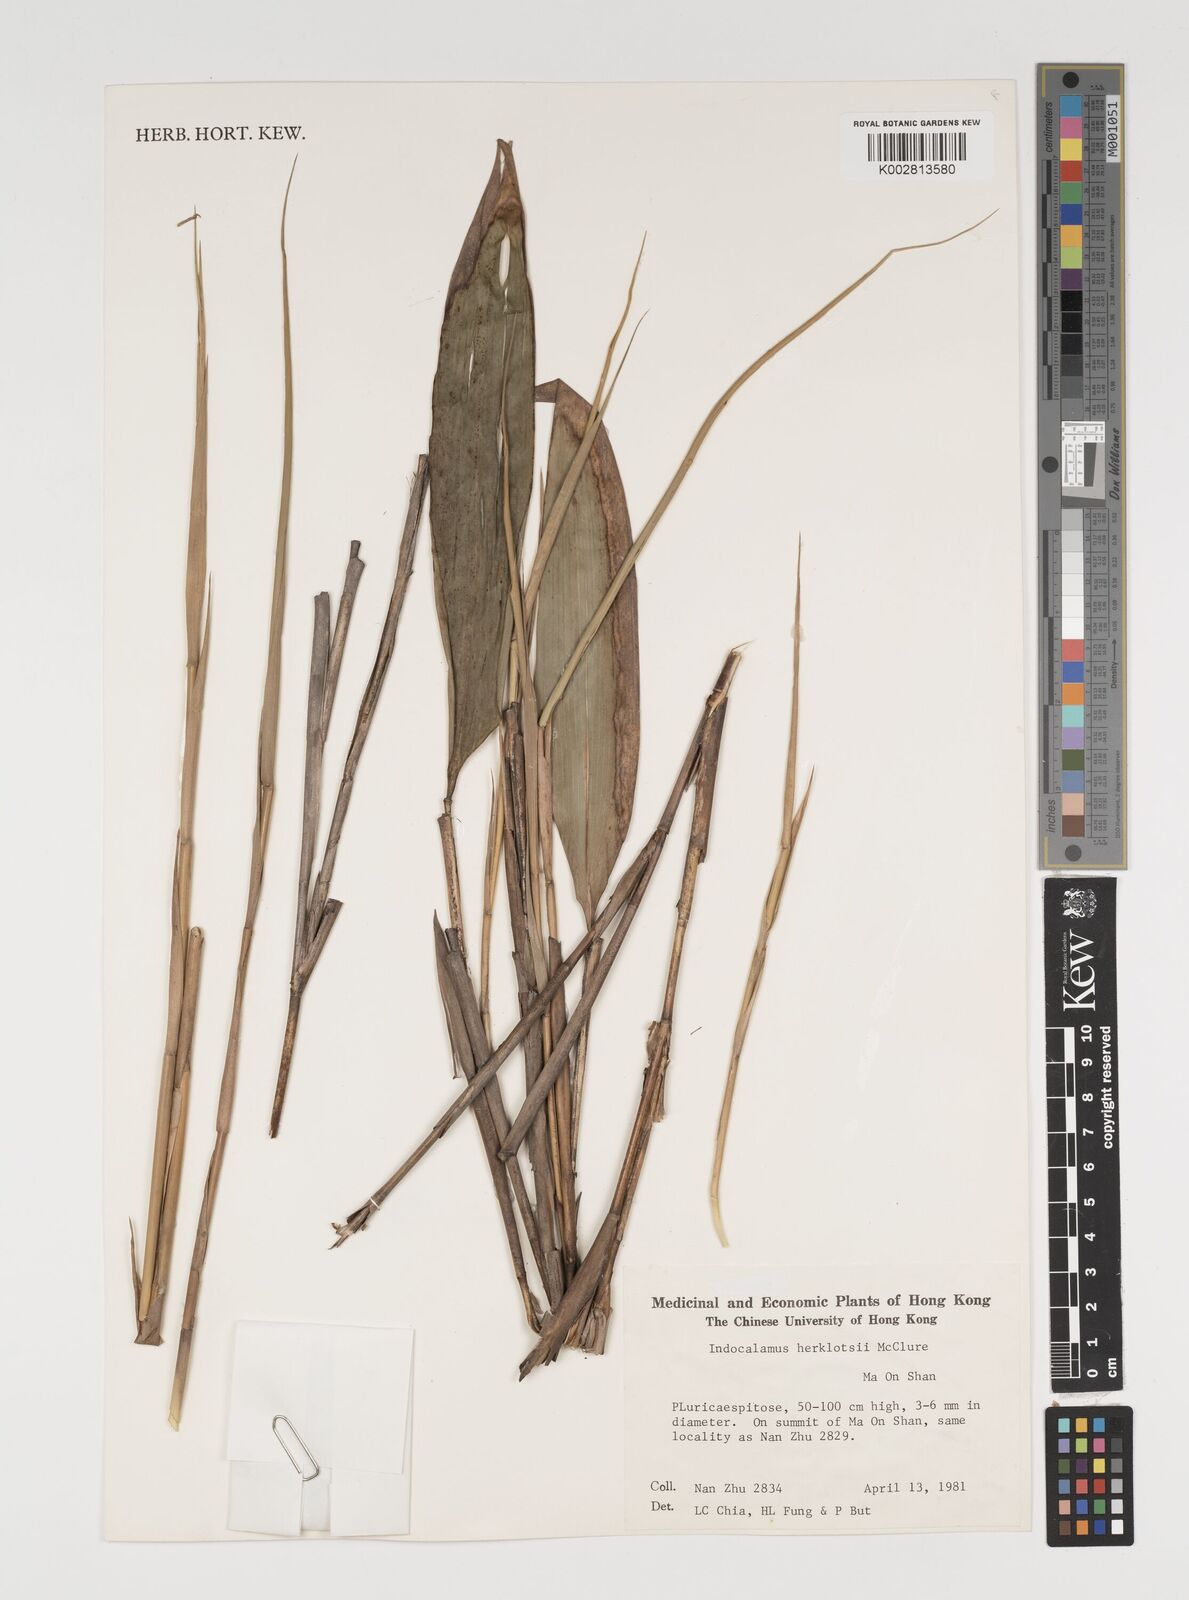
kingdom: Plantae
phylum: Tracheophyta
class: Liliopsida
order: Poales
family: Poaceae
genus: Indocalamus
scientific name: Indocalamus herklotsii
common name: Herklot's cane
